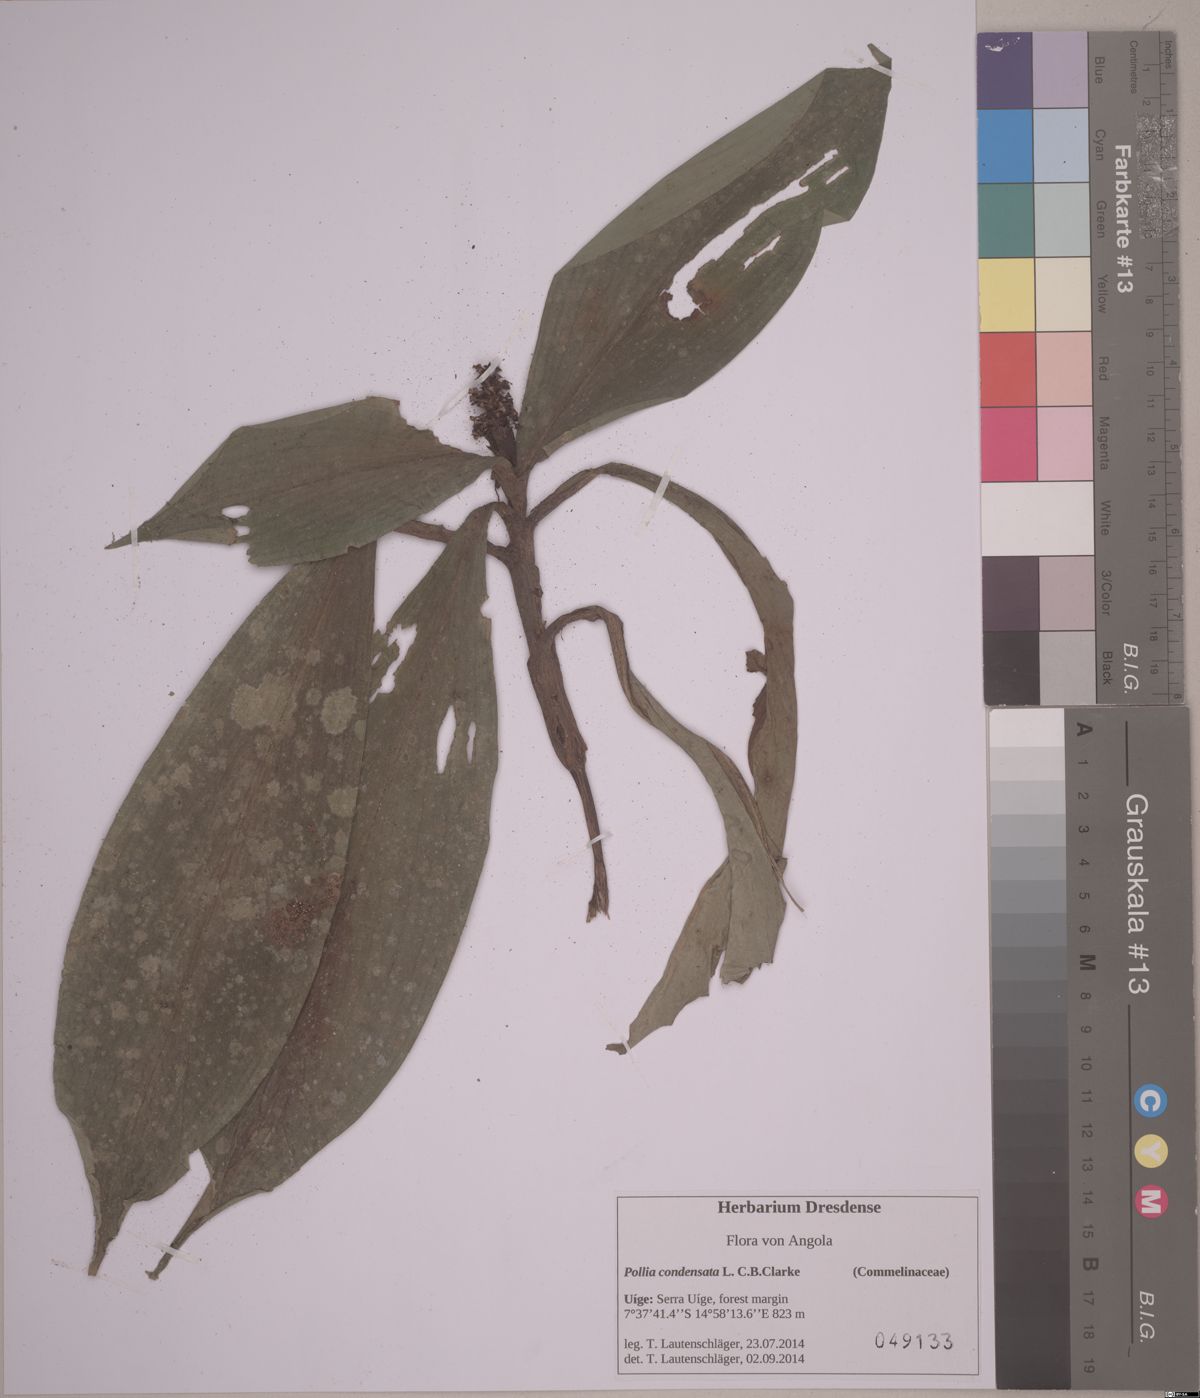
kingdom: Plantae
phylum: Tracheophyta
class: Liliopsida
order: Commelinales
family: Commelinaceae
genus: Pollia
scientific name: Pollia condensata
